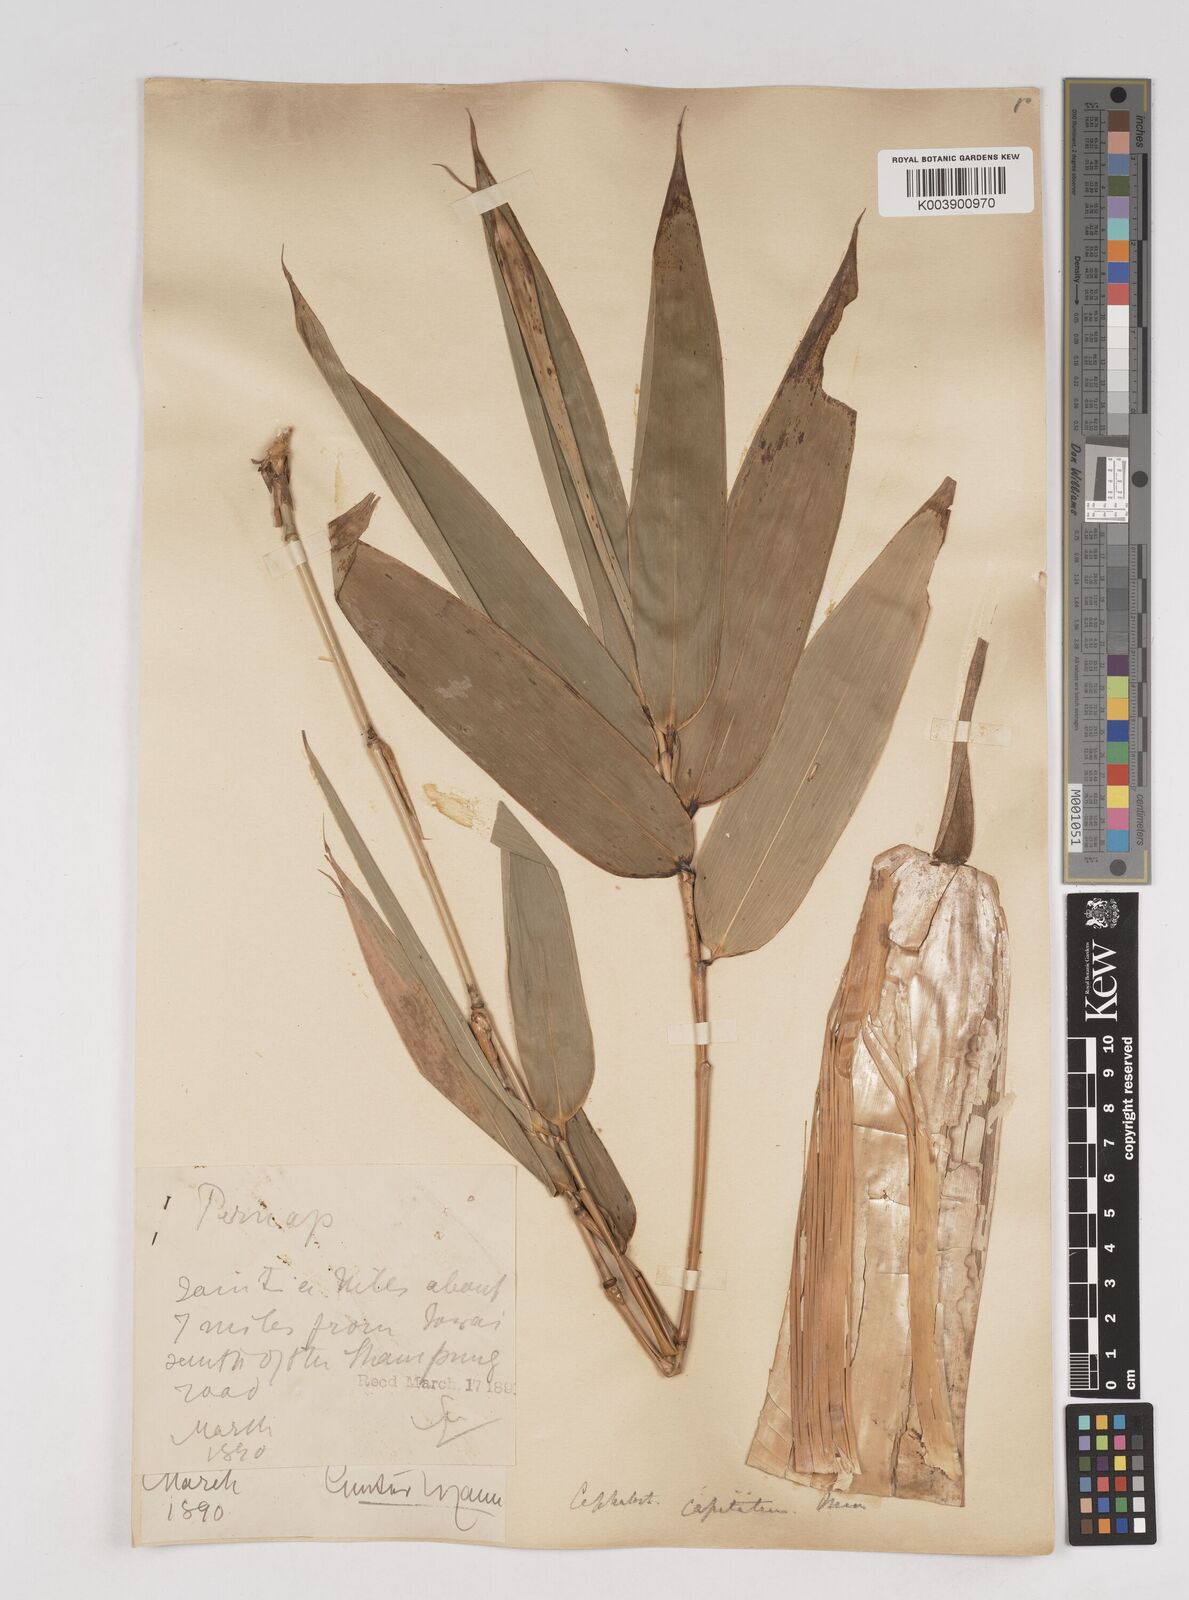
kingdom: Plantae
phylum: Tracheophyta
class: Liliopsida
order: Poales
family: Poaceae
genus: Cephalostachyum
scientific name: Cephalostachyum capitatum
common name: Hollow bamboo
